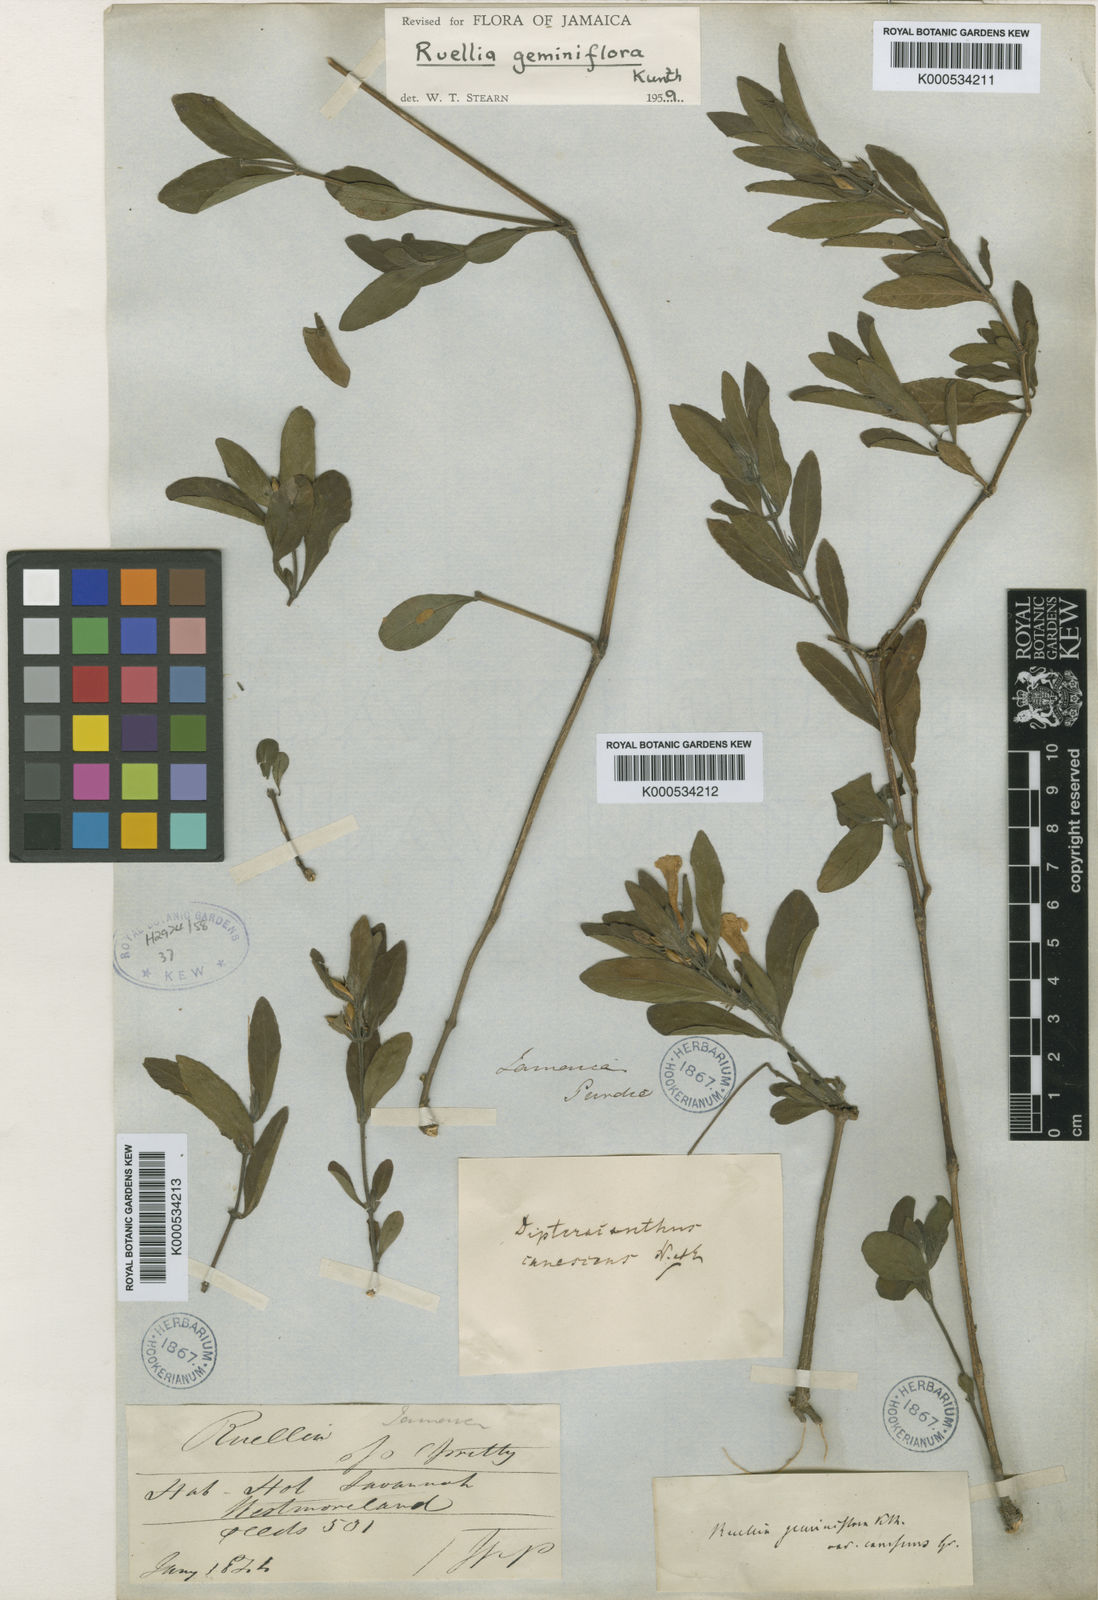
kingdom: Plantae
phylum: Tracheophyta
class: Magnoliopsida
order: Lamiales
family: Acanthaceae
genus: Ruellia
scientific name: Ruellia geminiflora
